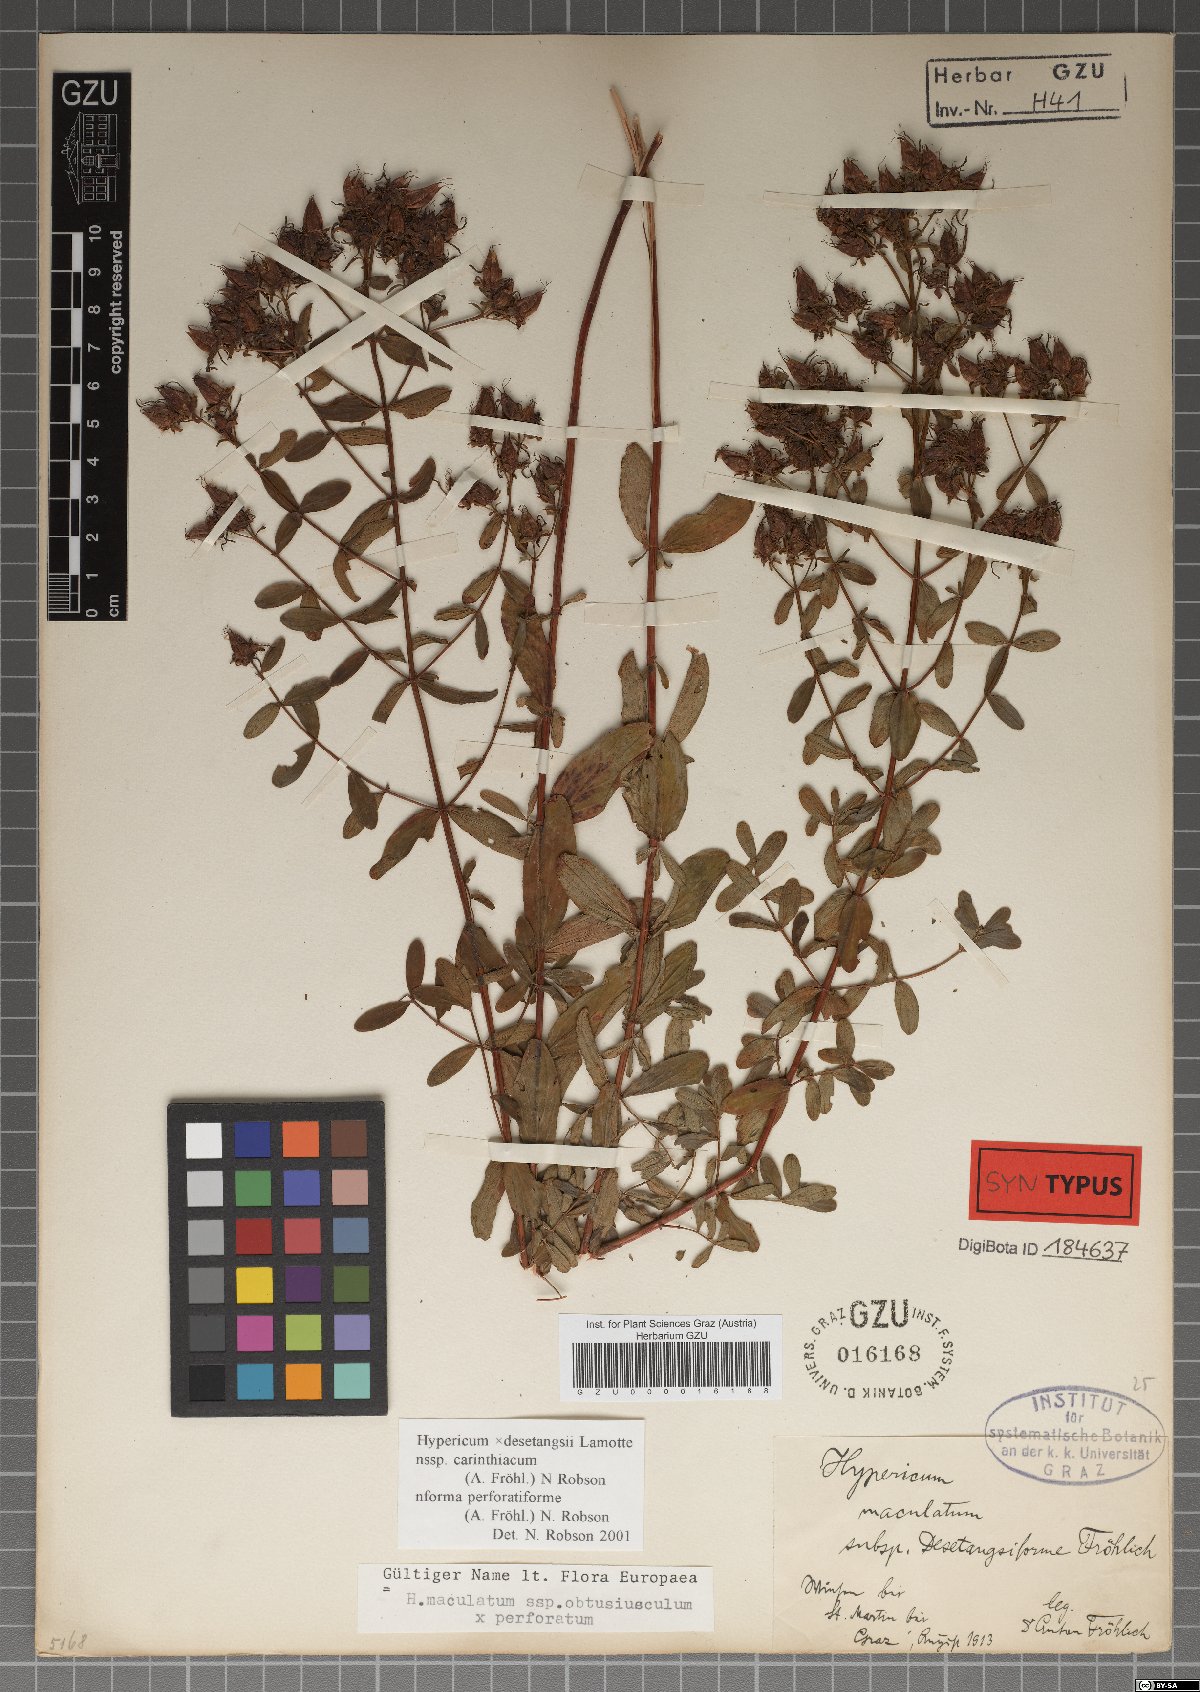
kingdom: Plantae
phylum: Tracheophyta
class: Magnoliopsida
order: Malpighiales
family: Hypericaceae
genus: Hypericum
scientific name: Hypericum carinthiacum
